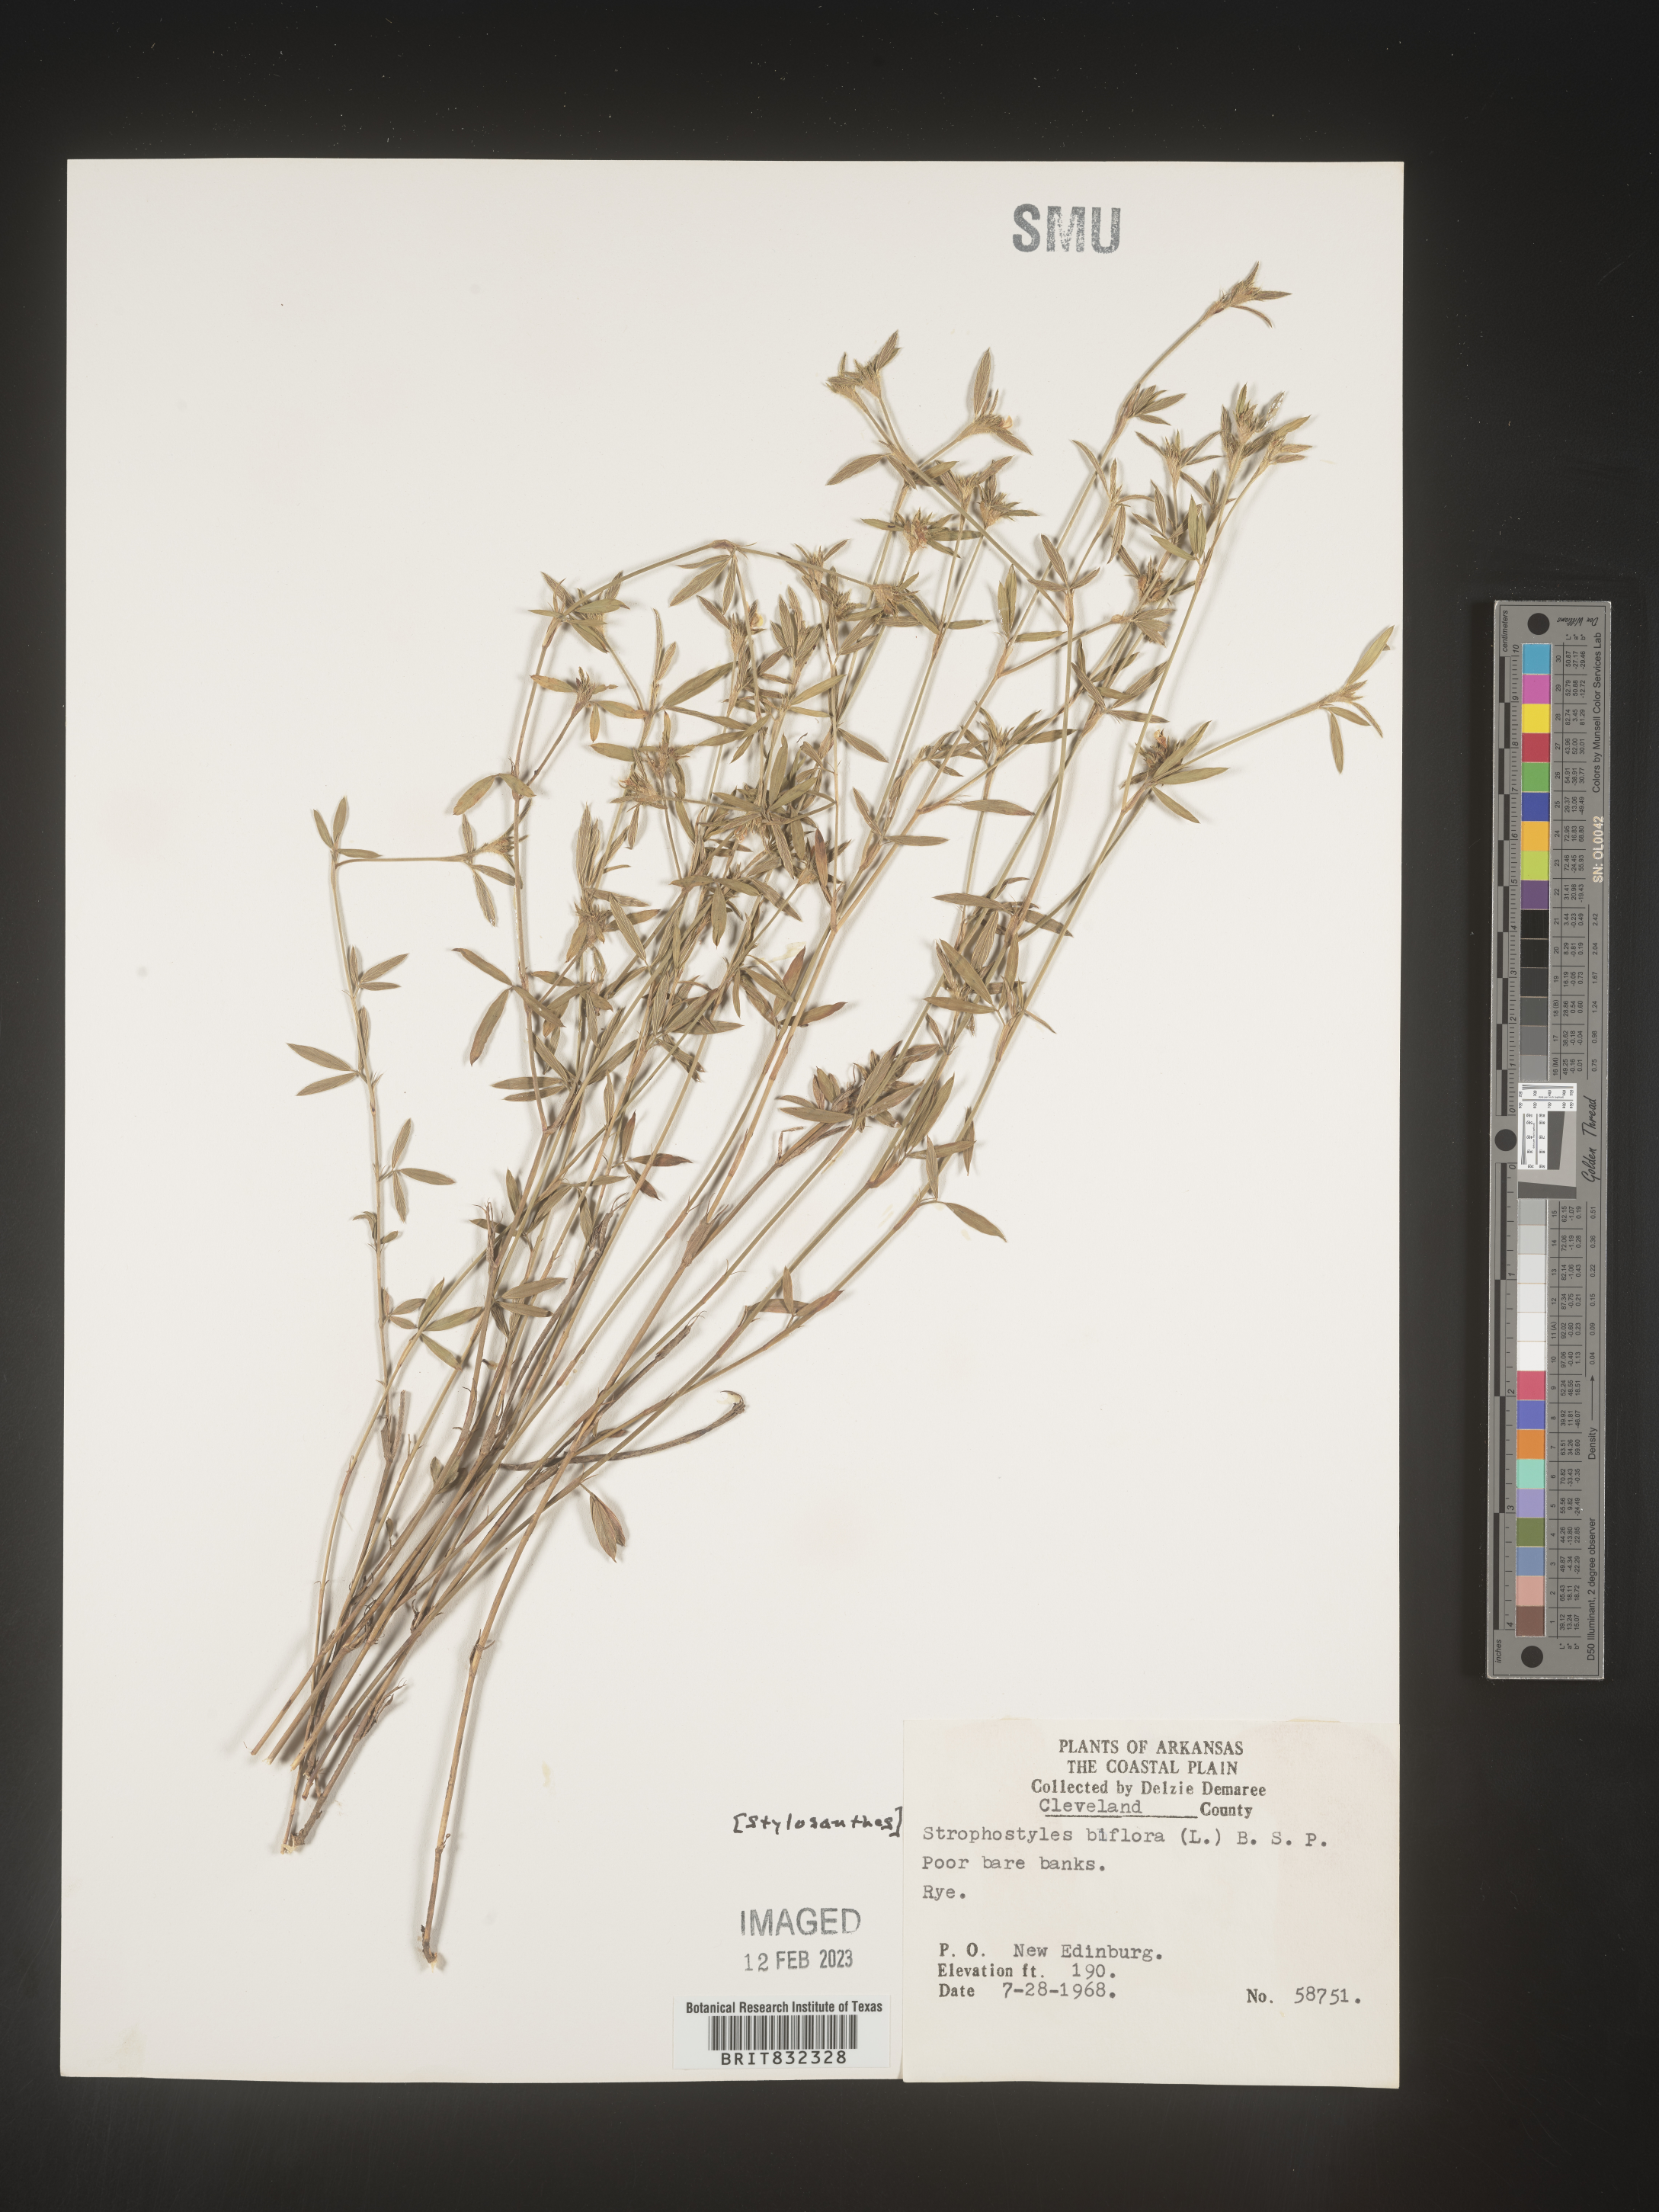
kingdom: Plantae
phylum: Tracheophyta
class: Magnoliopsida
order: Fabales
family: Fabaceae
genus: Stylosanthes
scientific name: Stylosanthes biflora
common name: Two-flower pencil-flower
